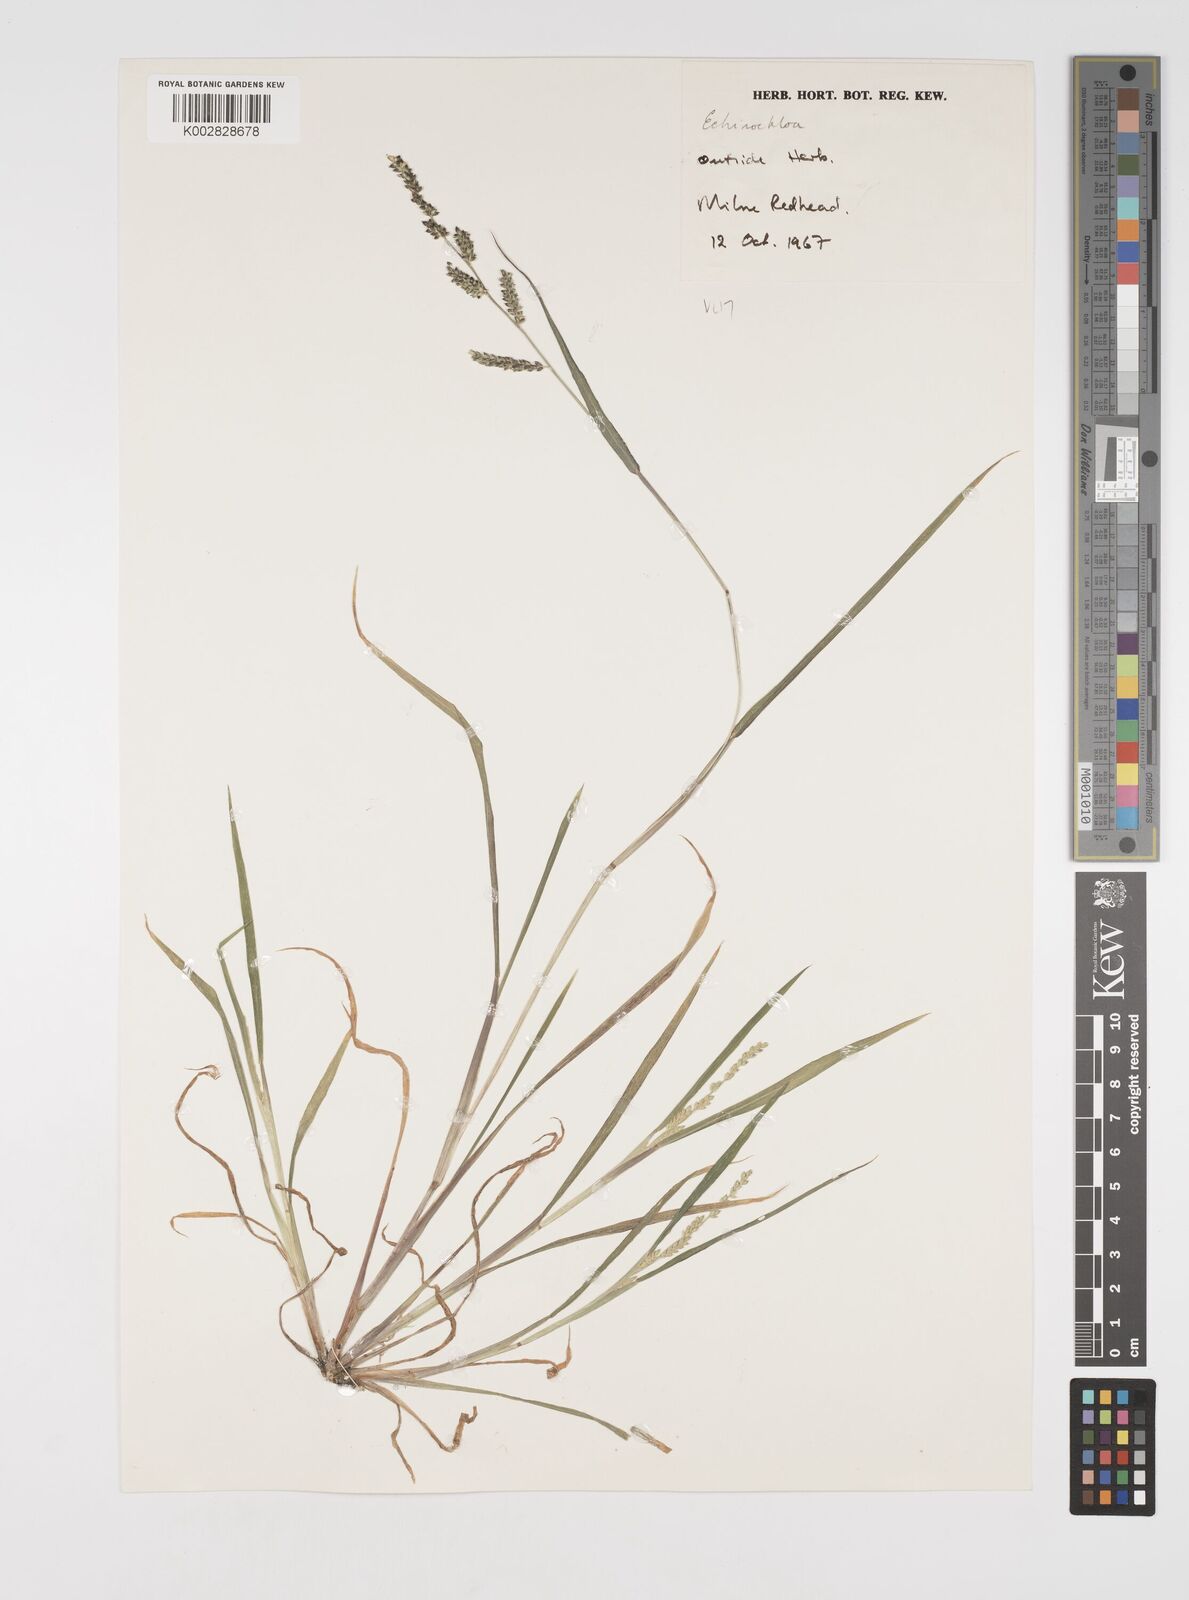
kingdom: Plantae
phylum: Tracheophyta
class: Liliopsida
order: Poales
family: Poaceae
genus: Echinochloa
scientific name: Echinochloa colonum
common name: Jungle rice
